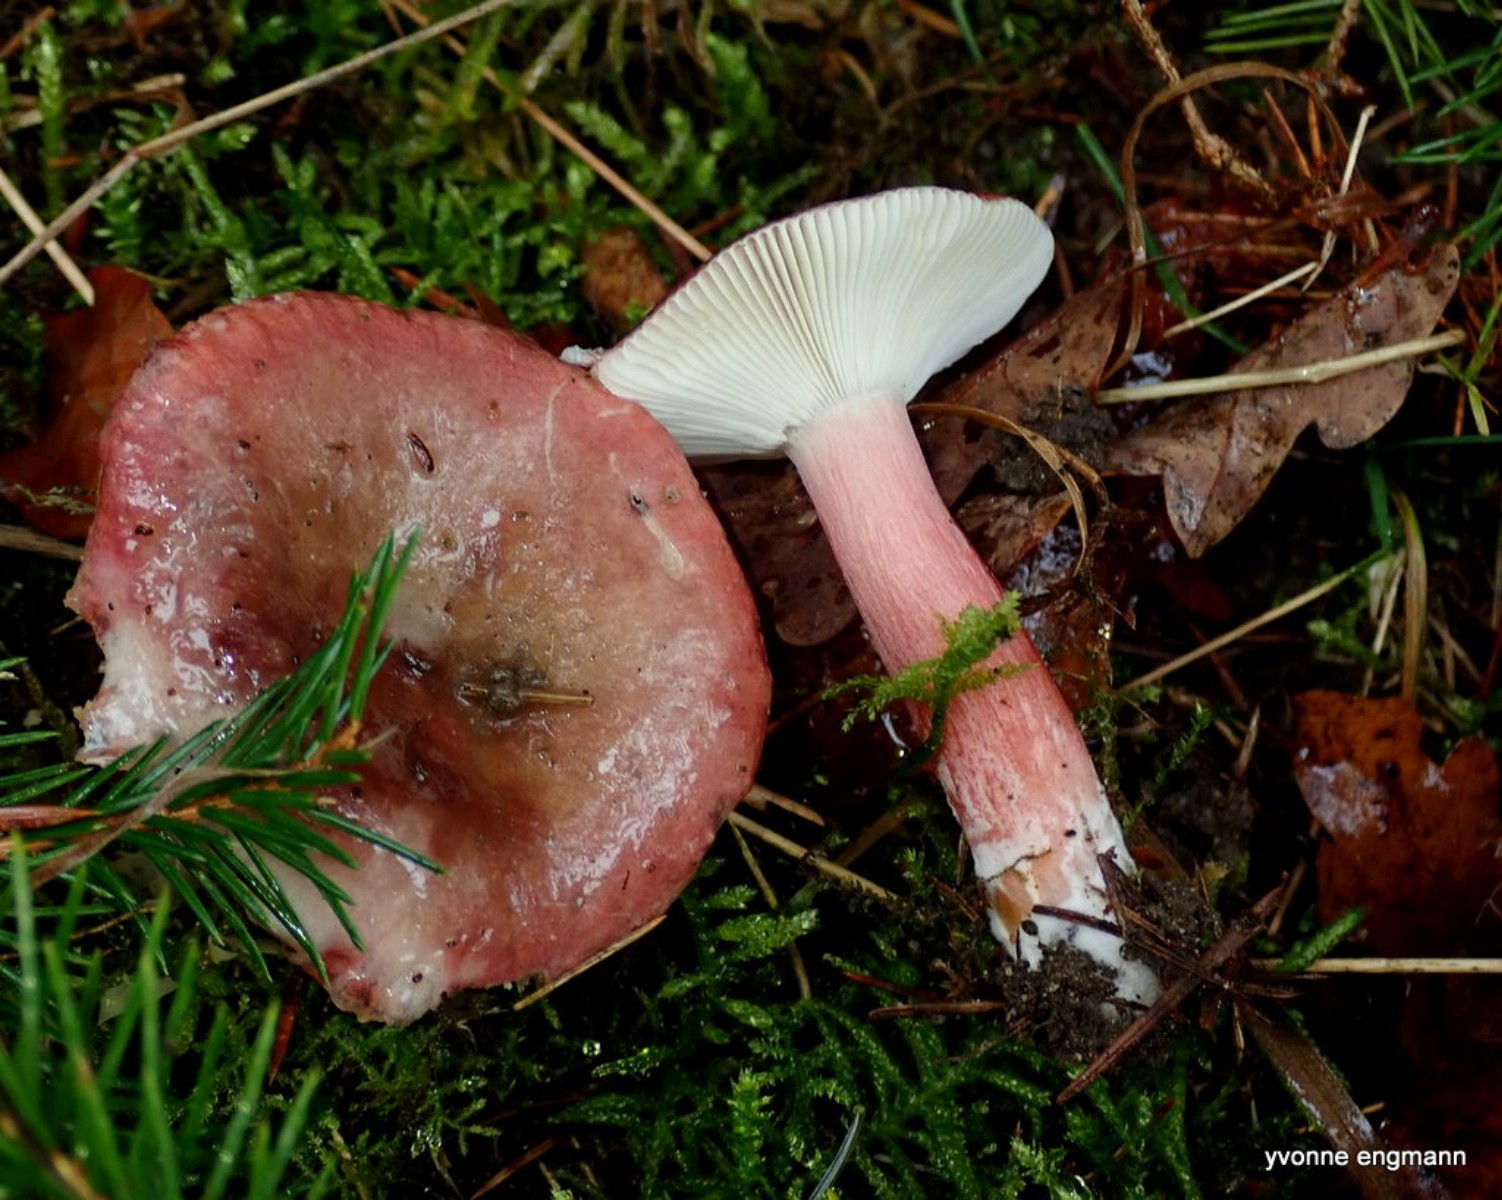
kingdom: Fungi
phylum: Basidiomycota
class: Agaricomycetes
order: Russulales
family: Russulaceae
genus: Russula
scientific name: Russula queletii
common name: Quélets skørhat
